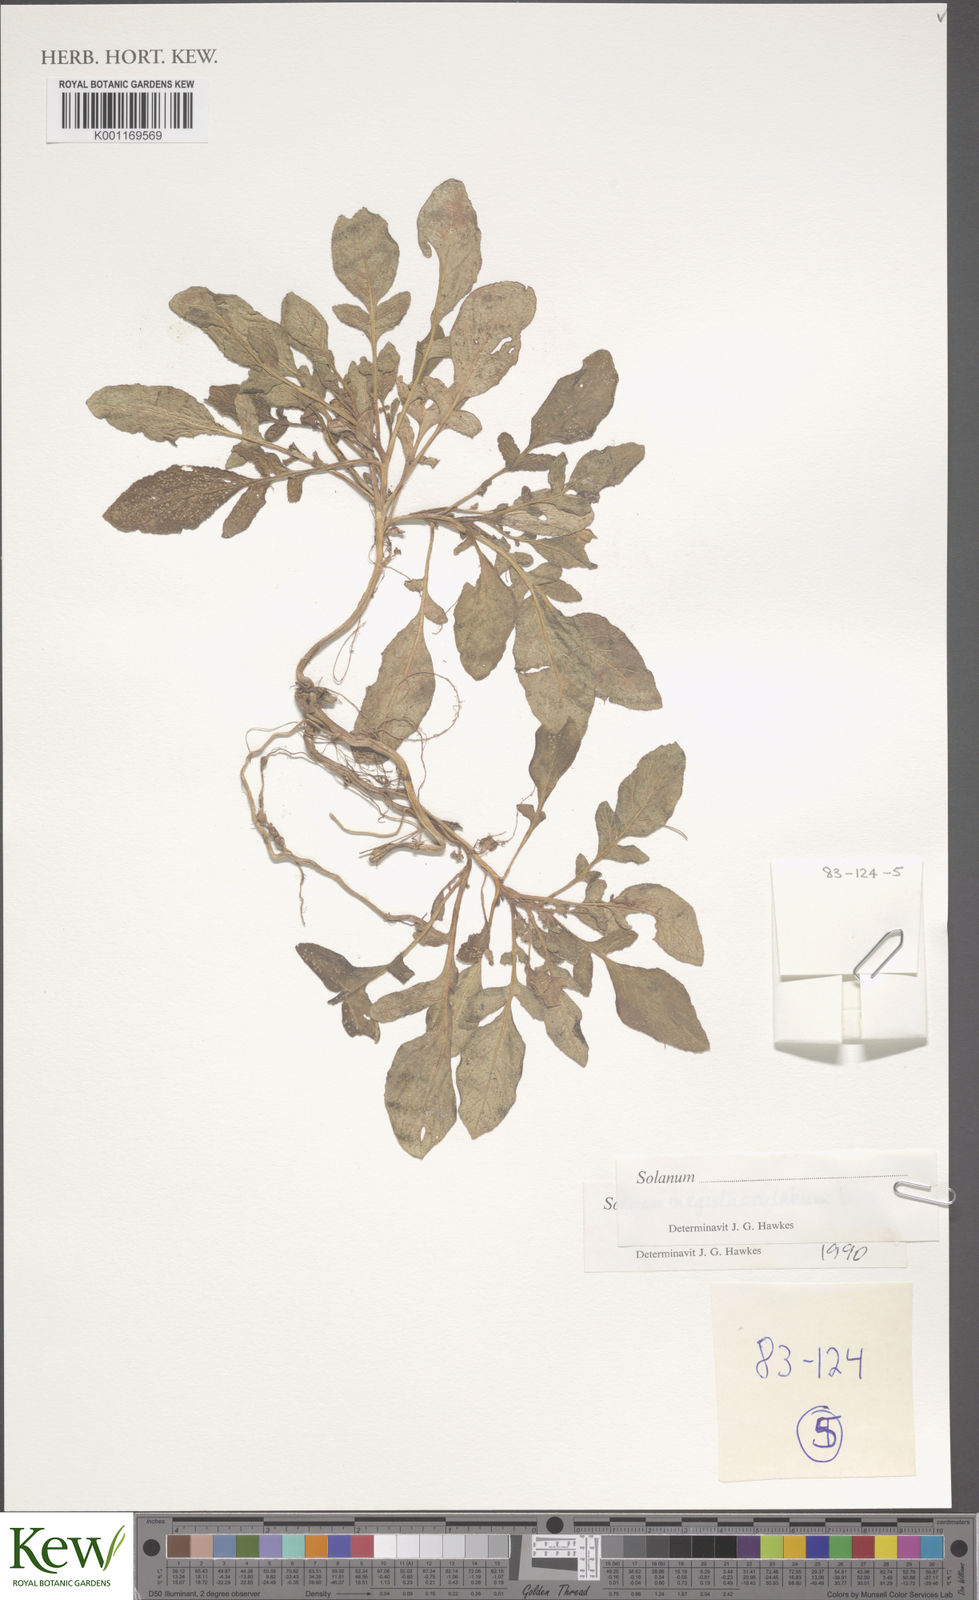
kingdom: Plantae
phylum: Tracheophyta
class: Magnoliopsida
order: Solanales
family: Solanaceae
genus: Solanum
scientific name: Solanum boliviense
